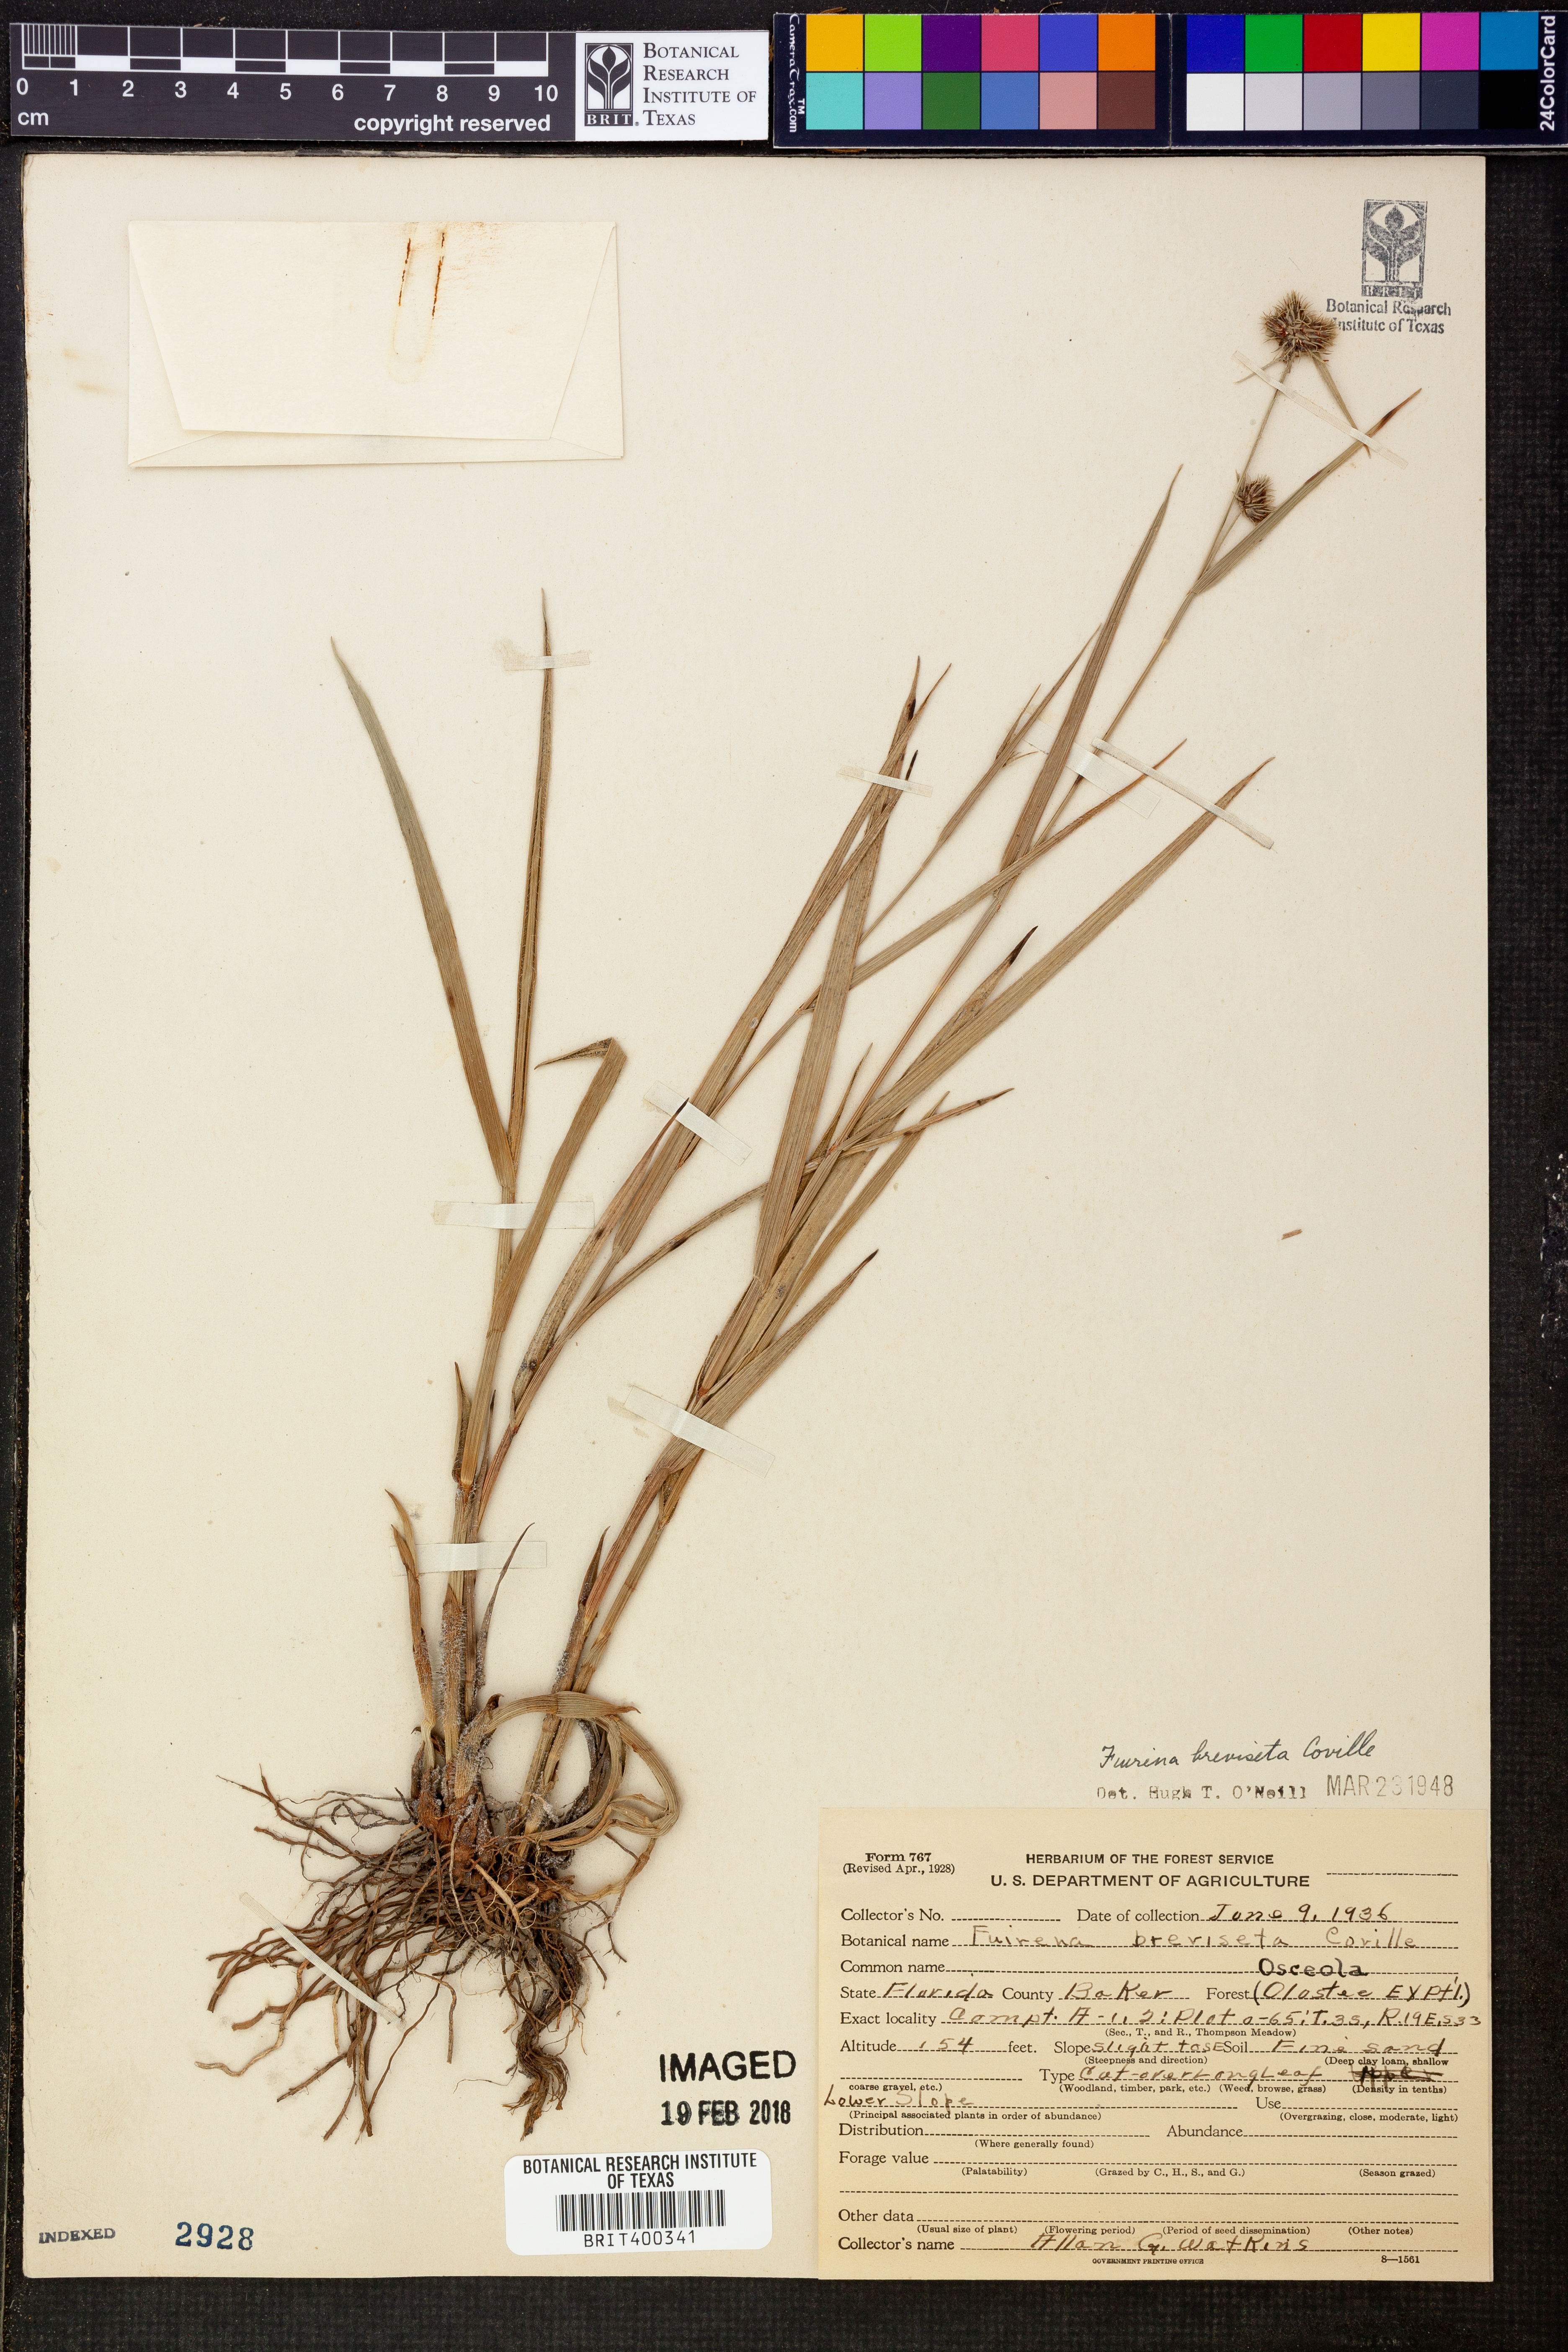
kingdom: Plantae
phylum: Tracheophyta
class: Liliopsida
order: Poales
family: Cyperaceae
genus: Fuirena
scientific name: Fuirena breviseta
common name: Saltmarsh umbrella sedge
